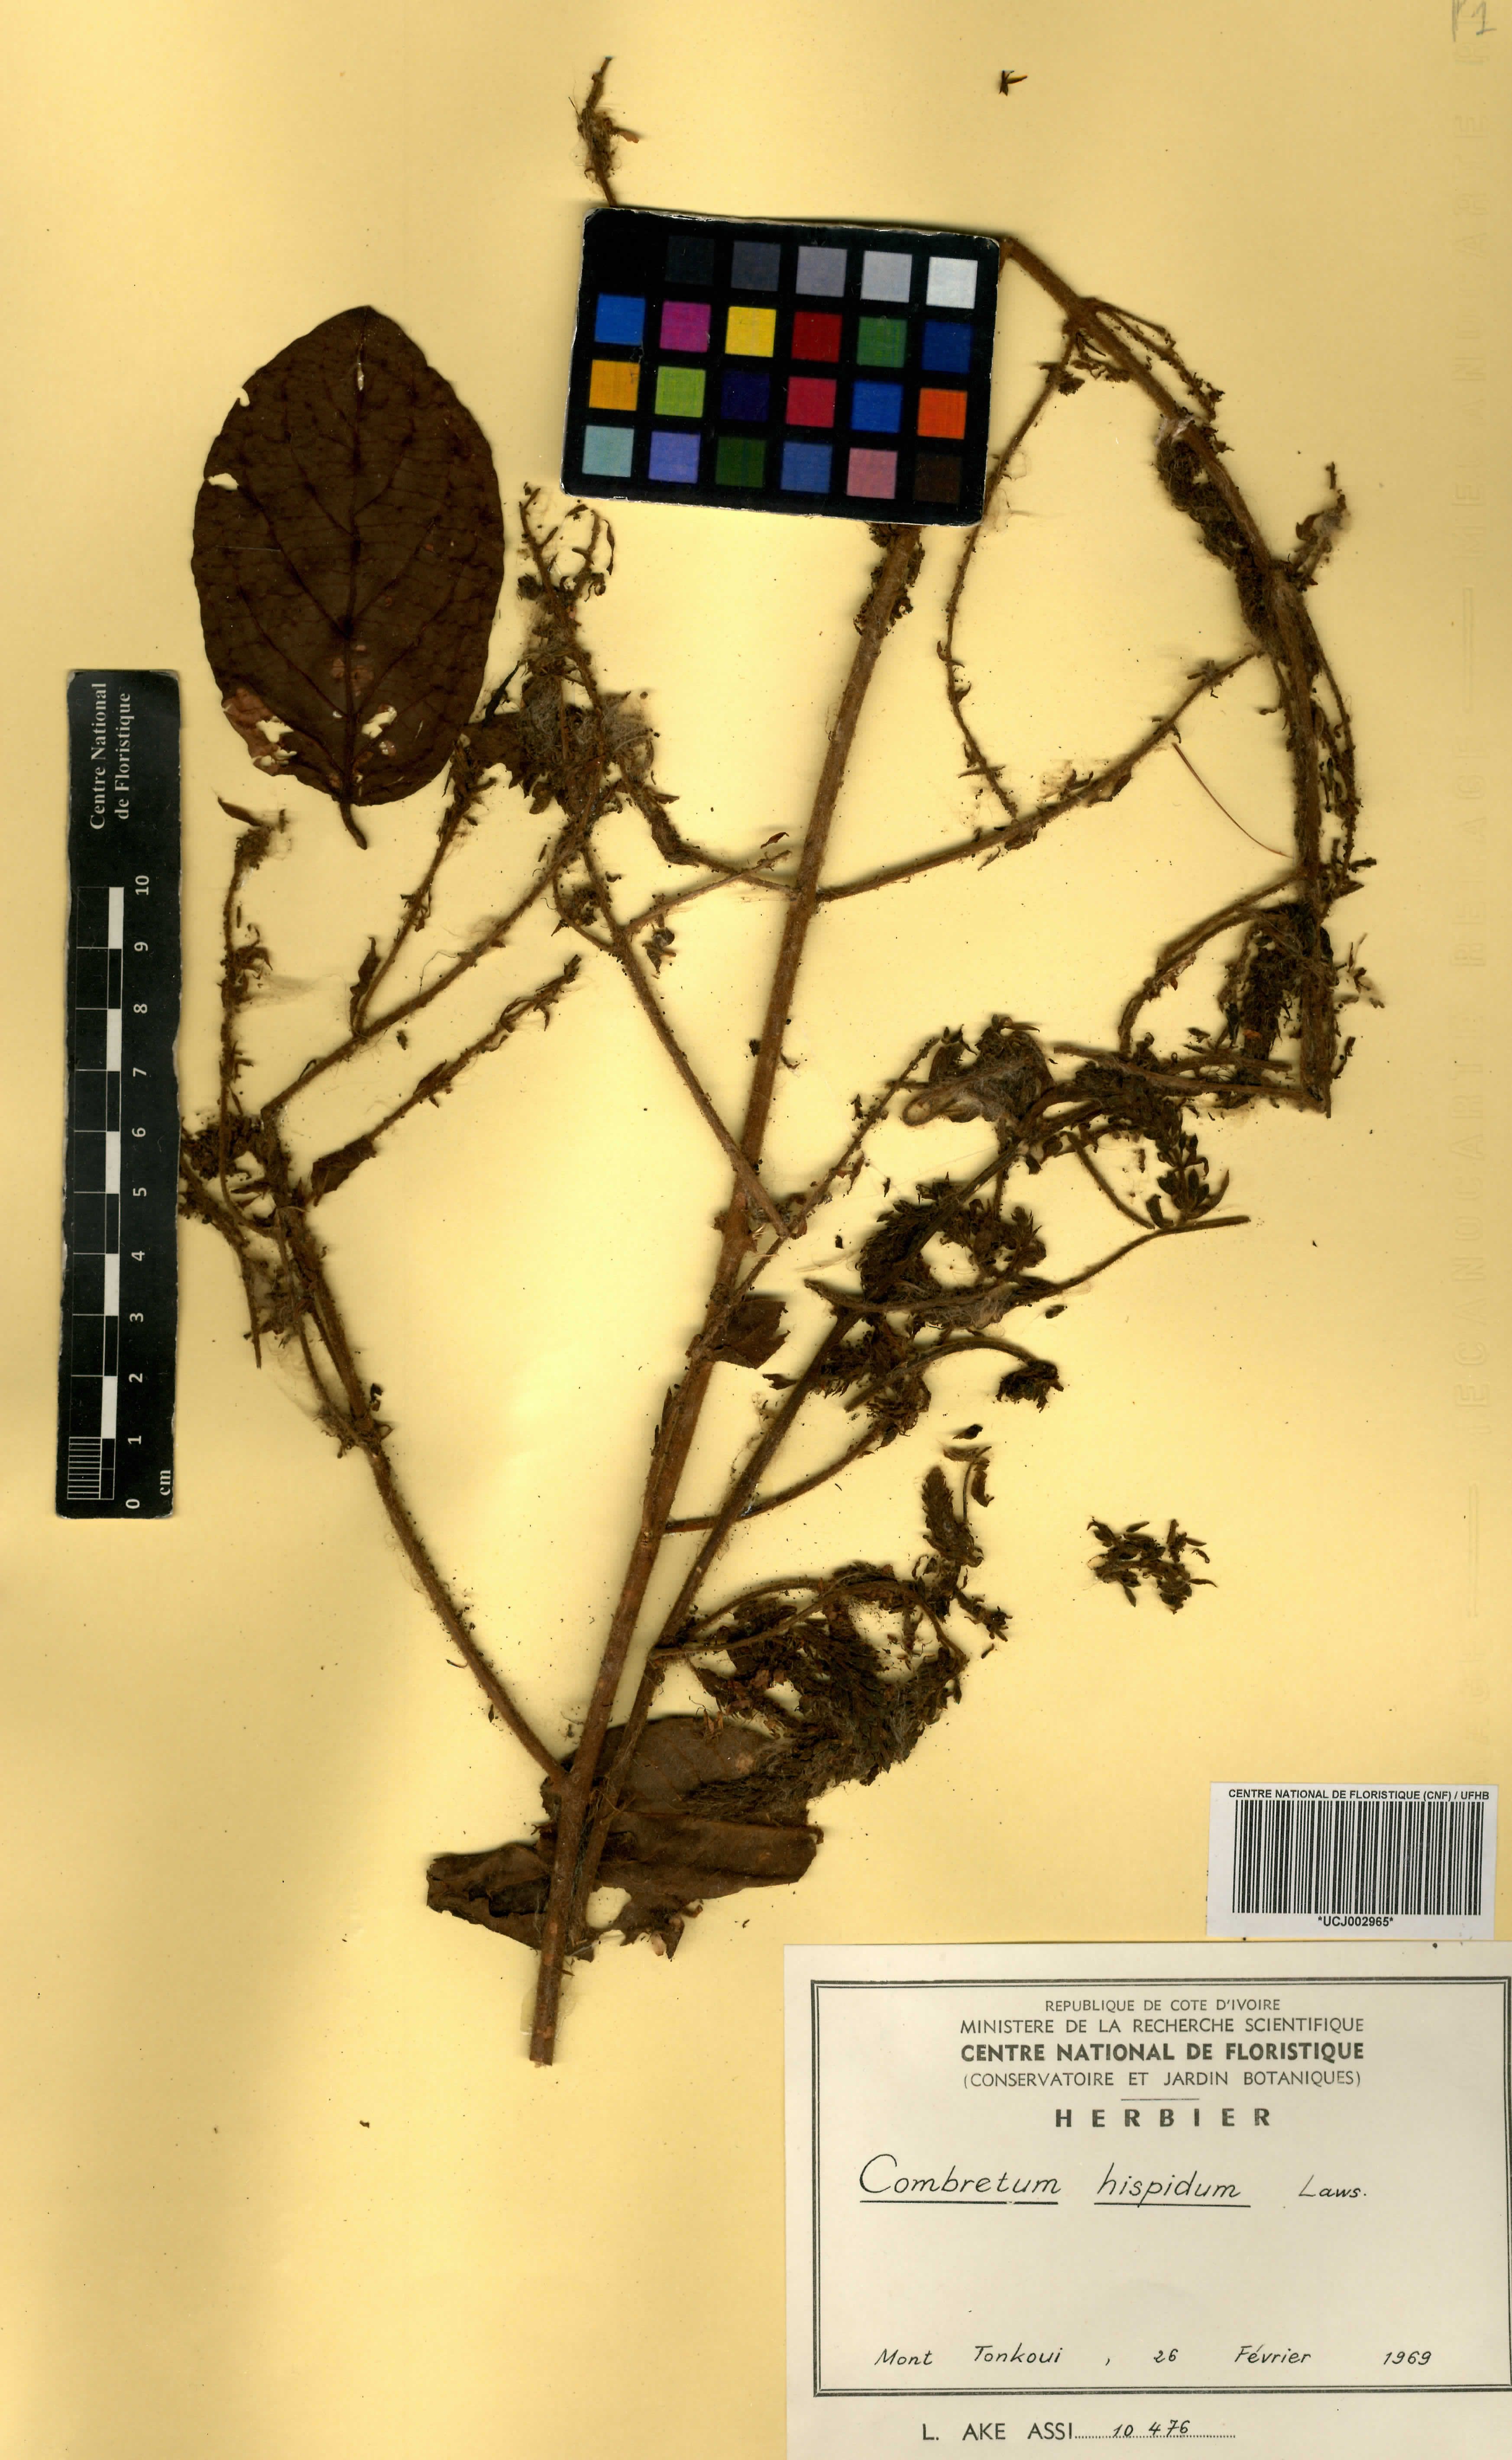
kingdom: Plantae
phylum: Tracheophyta
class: Magnoliopsida
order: Myrtales
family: Combretaceae
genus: Combretum
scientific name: Combretum comosum
